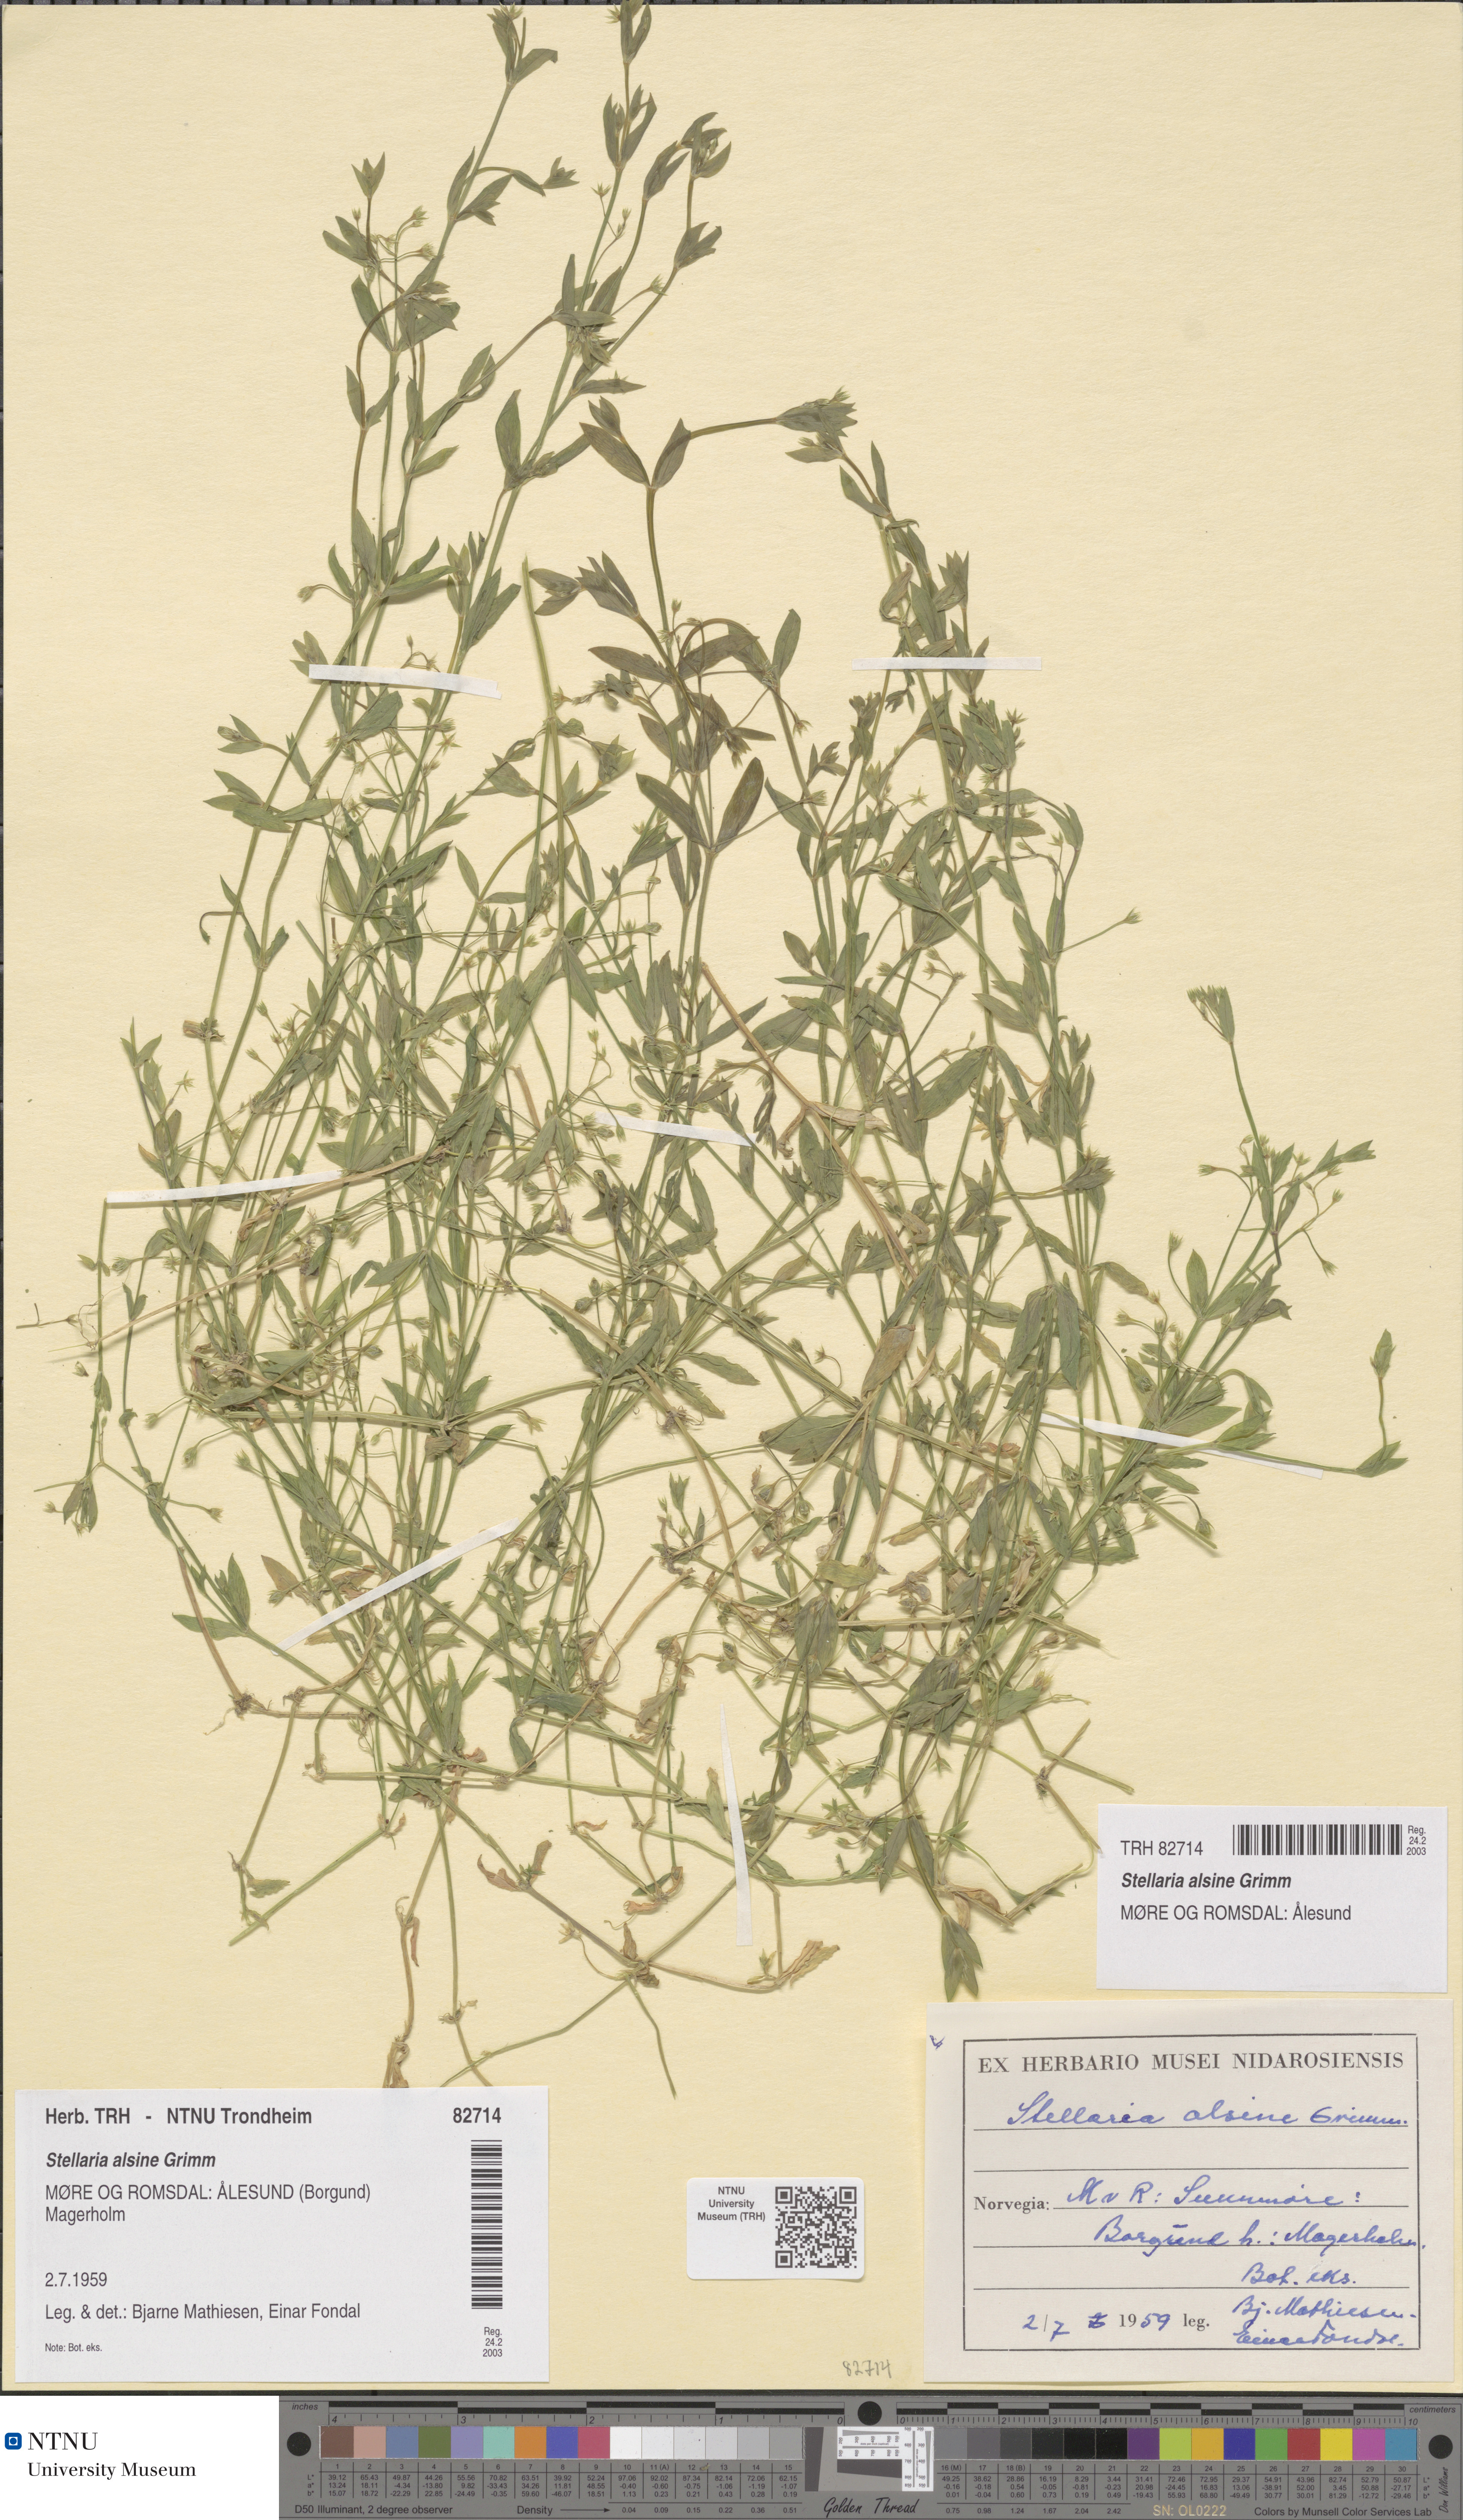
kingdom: Plantae
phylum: Tracheophyta
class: Magnoliopsida
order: Caryophyllales
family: Caryophyllaceae
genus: Stellaria
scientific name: Stellaria alsine
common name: Bog stitchwort
